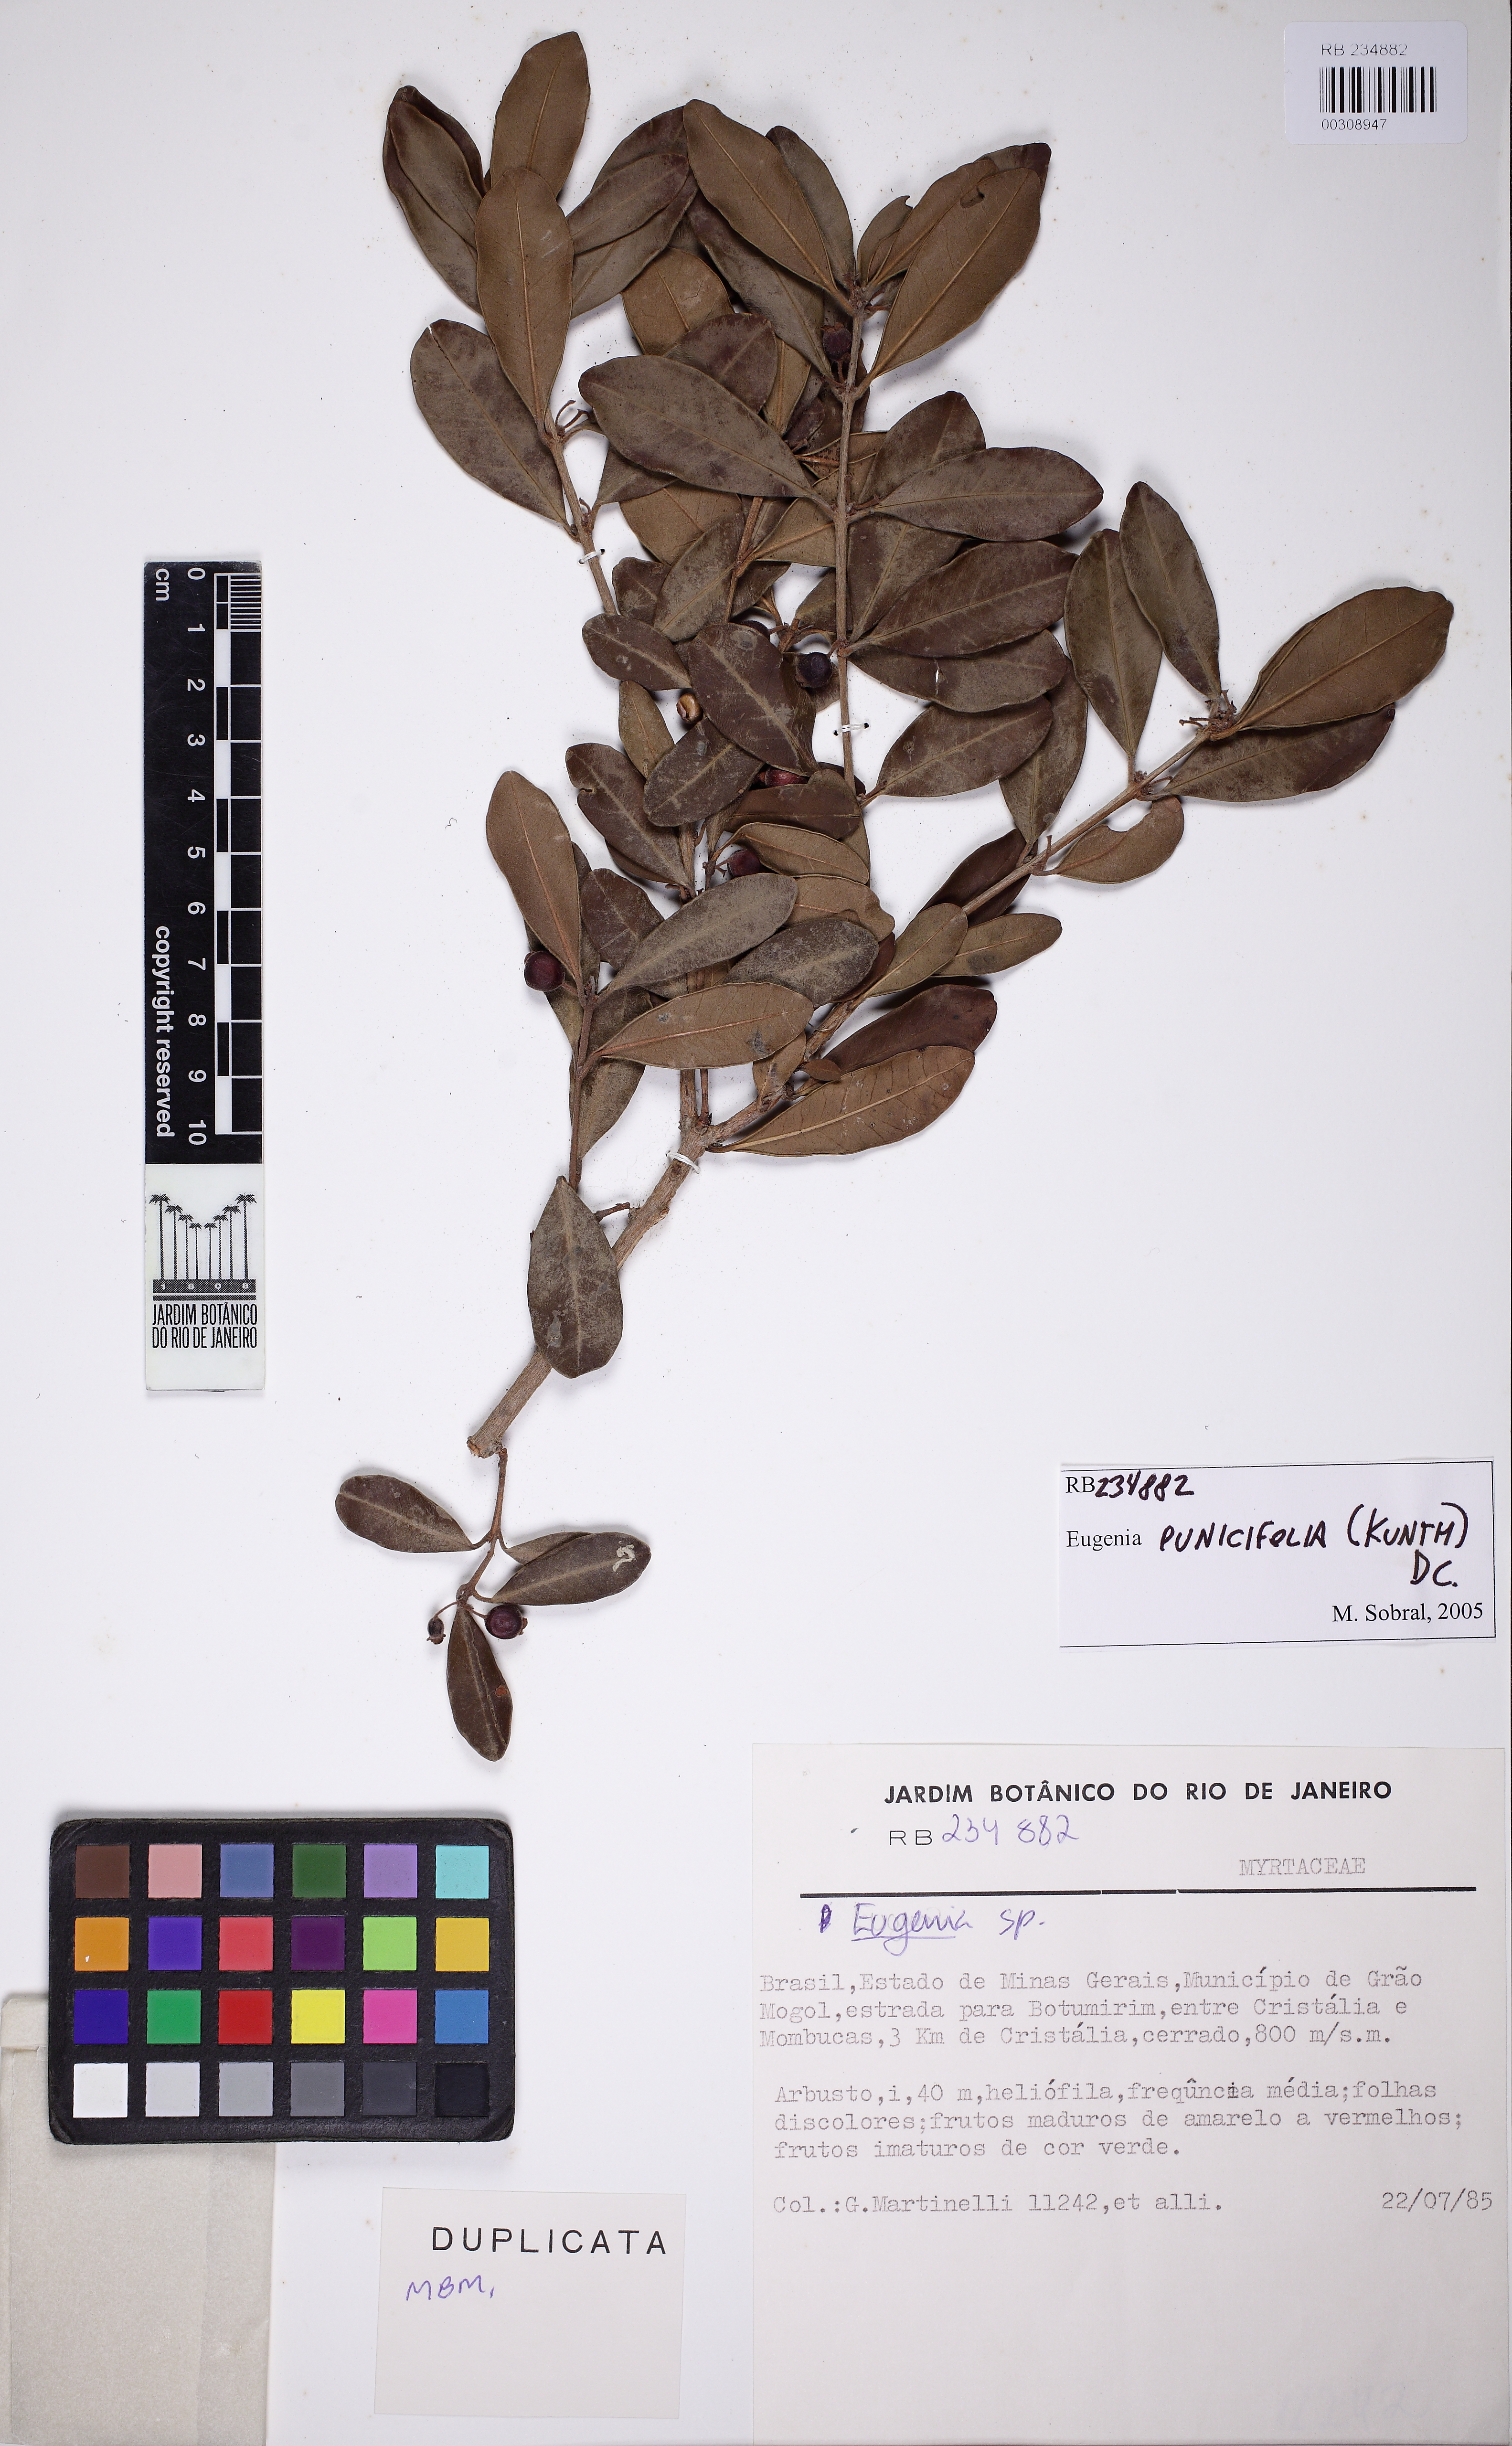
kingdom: Plantae
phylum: Tracheophyta
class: Magnoliopsida
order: Myrtales
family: Myrtaceae
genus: Eugenia
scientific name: Eugenia punicifolia
